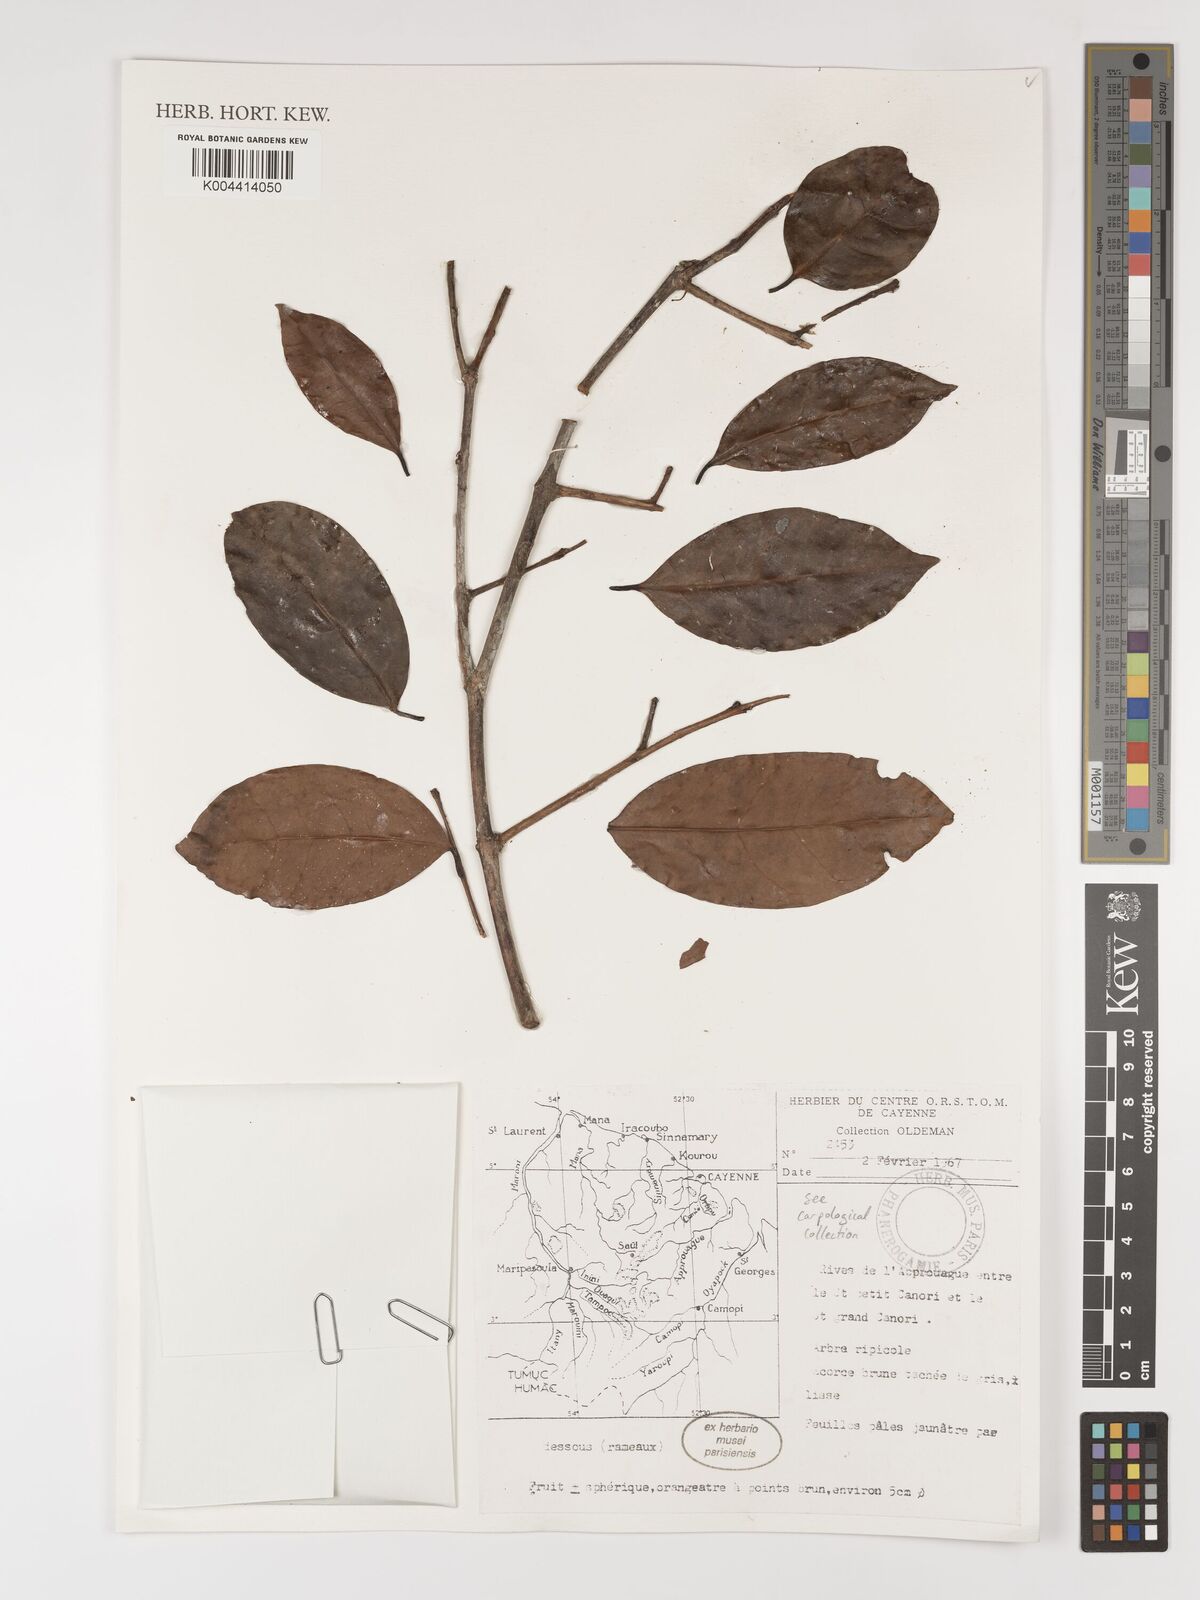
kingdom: Plantae
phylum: Tracheophyta
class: Magnoliopsida
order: Myrtales
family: Myrtaceae
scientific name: Myrtaceae
